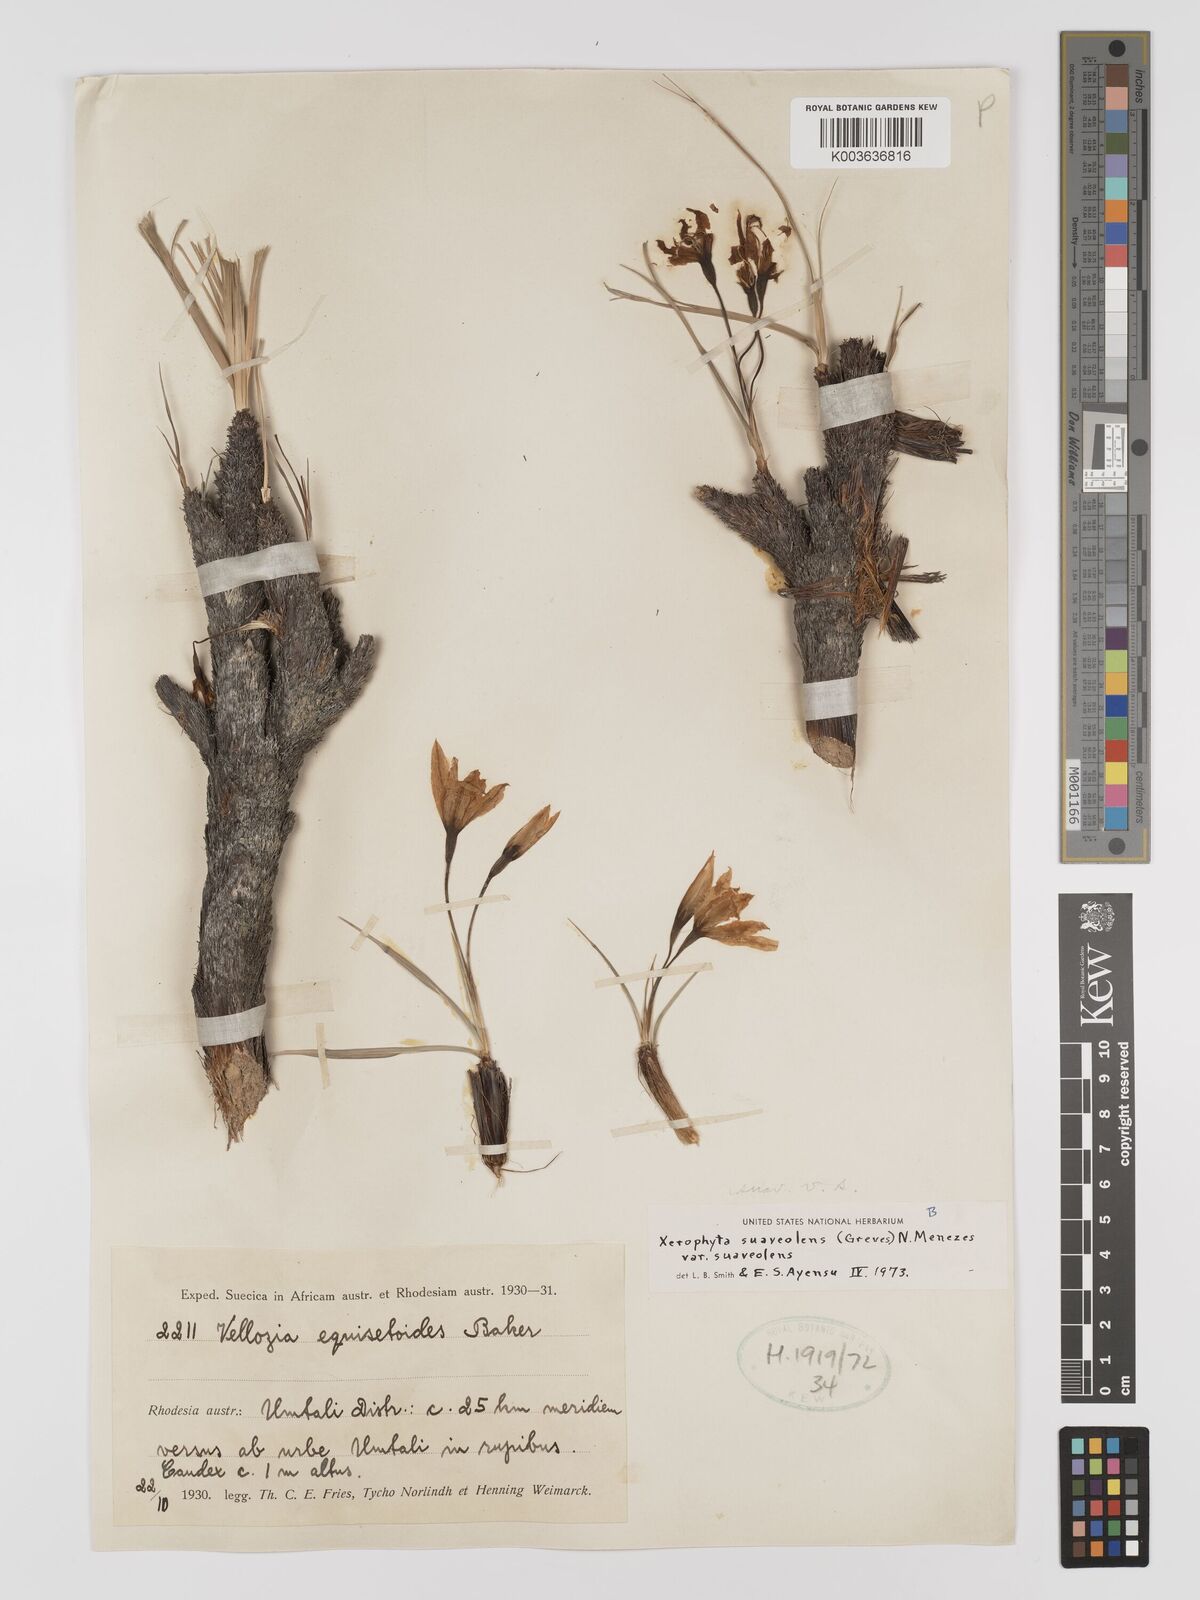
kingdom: Plantae
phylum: Tracheophyta
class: Liliopsida
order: Pandanales
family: Velloziaceae
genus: Xerophyta
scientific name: Xerophyta suaveolens
